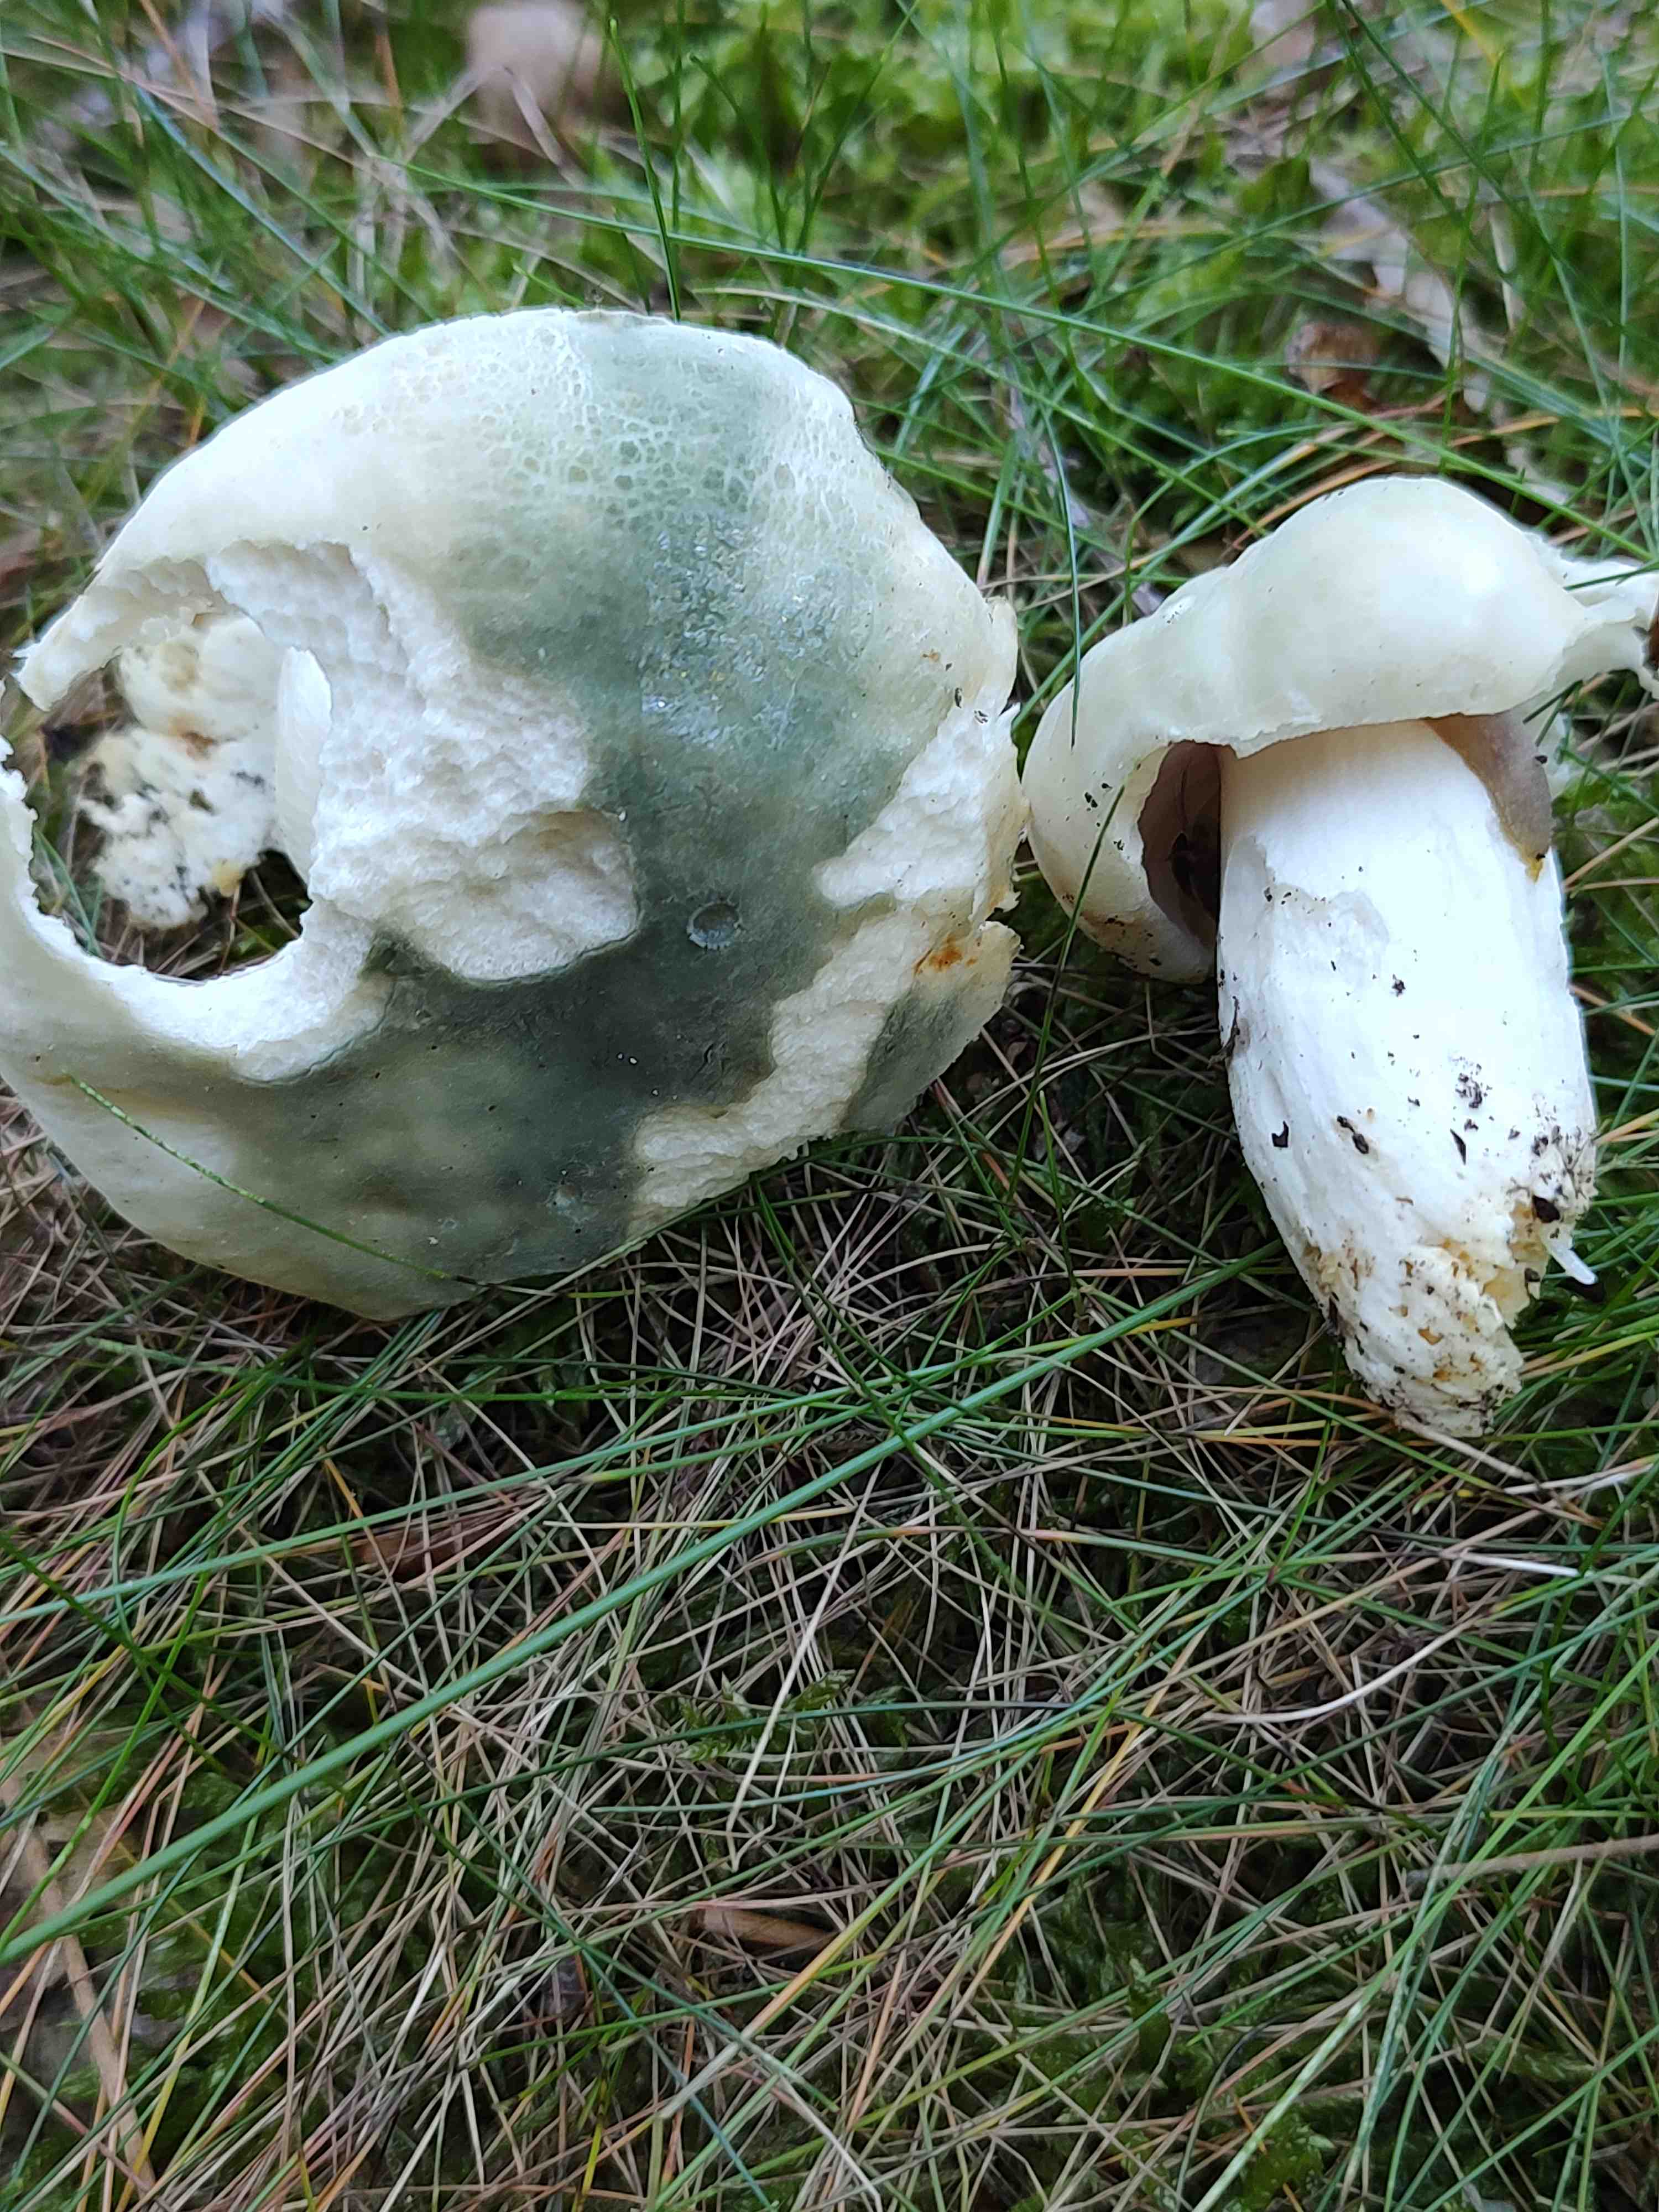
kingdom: Fungi
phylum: Basidiomycota
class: Agaricomycetes
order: Russulales
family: Russulaceae
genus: Russula
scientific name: Russula virescens
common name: spanskgrøn skørhat
